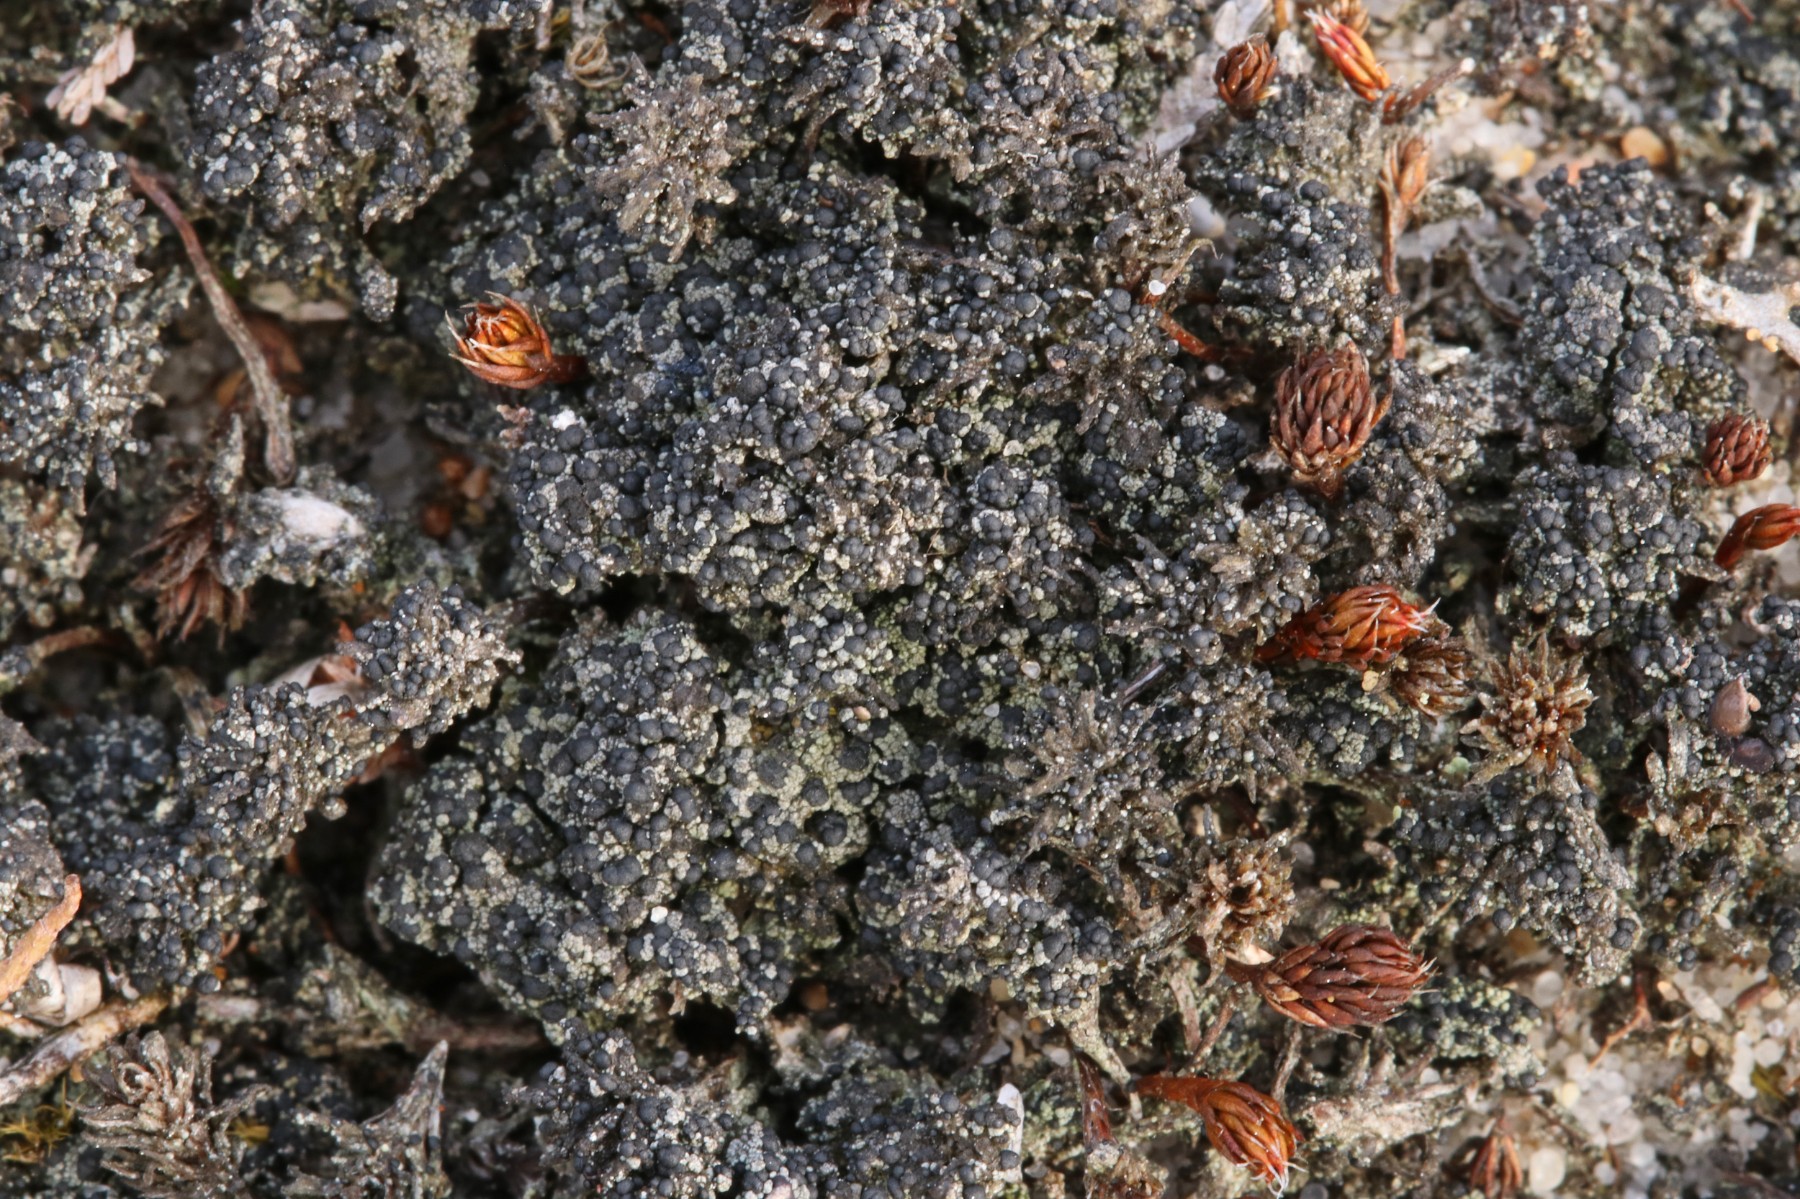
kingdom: Fungi
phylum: Ascomycota
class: Lecanoromycetes
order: Lecanorales
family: Byssolomataceae
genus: Micarea
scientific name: Micarea lignaria
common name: tørve-knaplav
